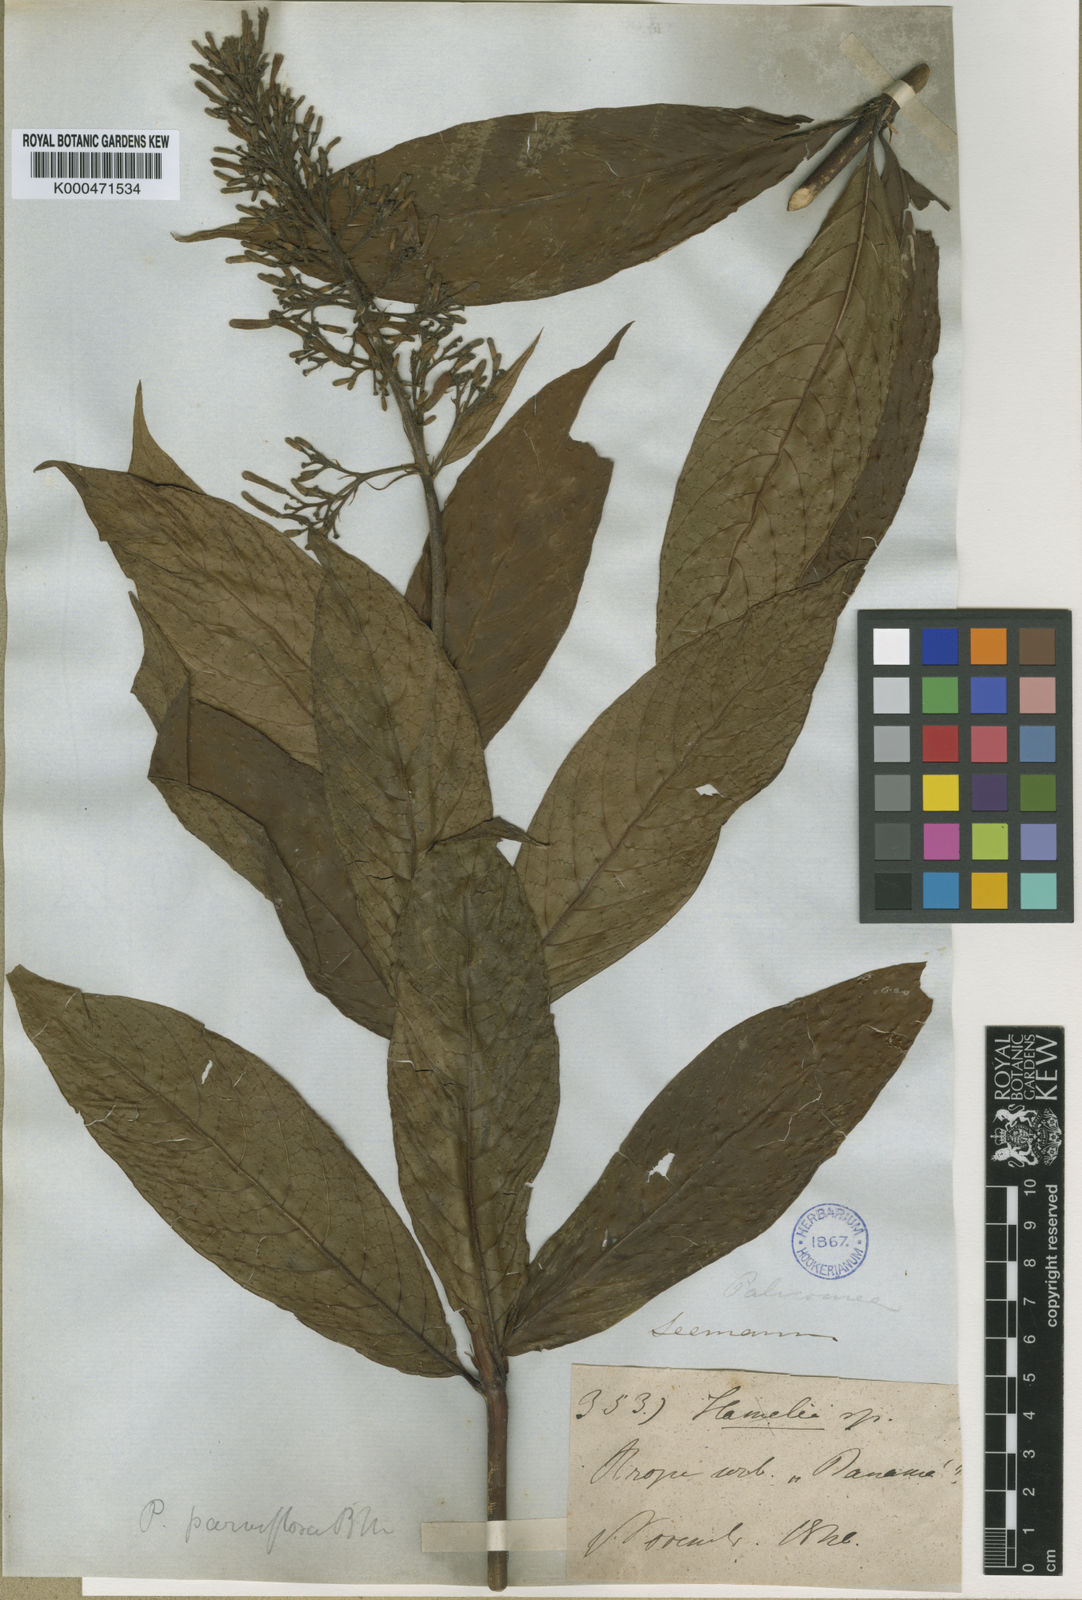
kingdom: Plantae
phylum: Tracheophyta
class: Magnoliopsida
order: Gentianales
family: Rubiaceae
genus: Palicourea
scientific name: Palicourea triphylla
